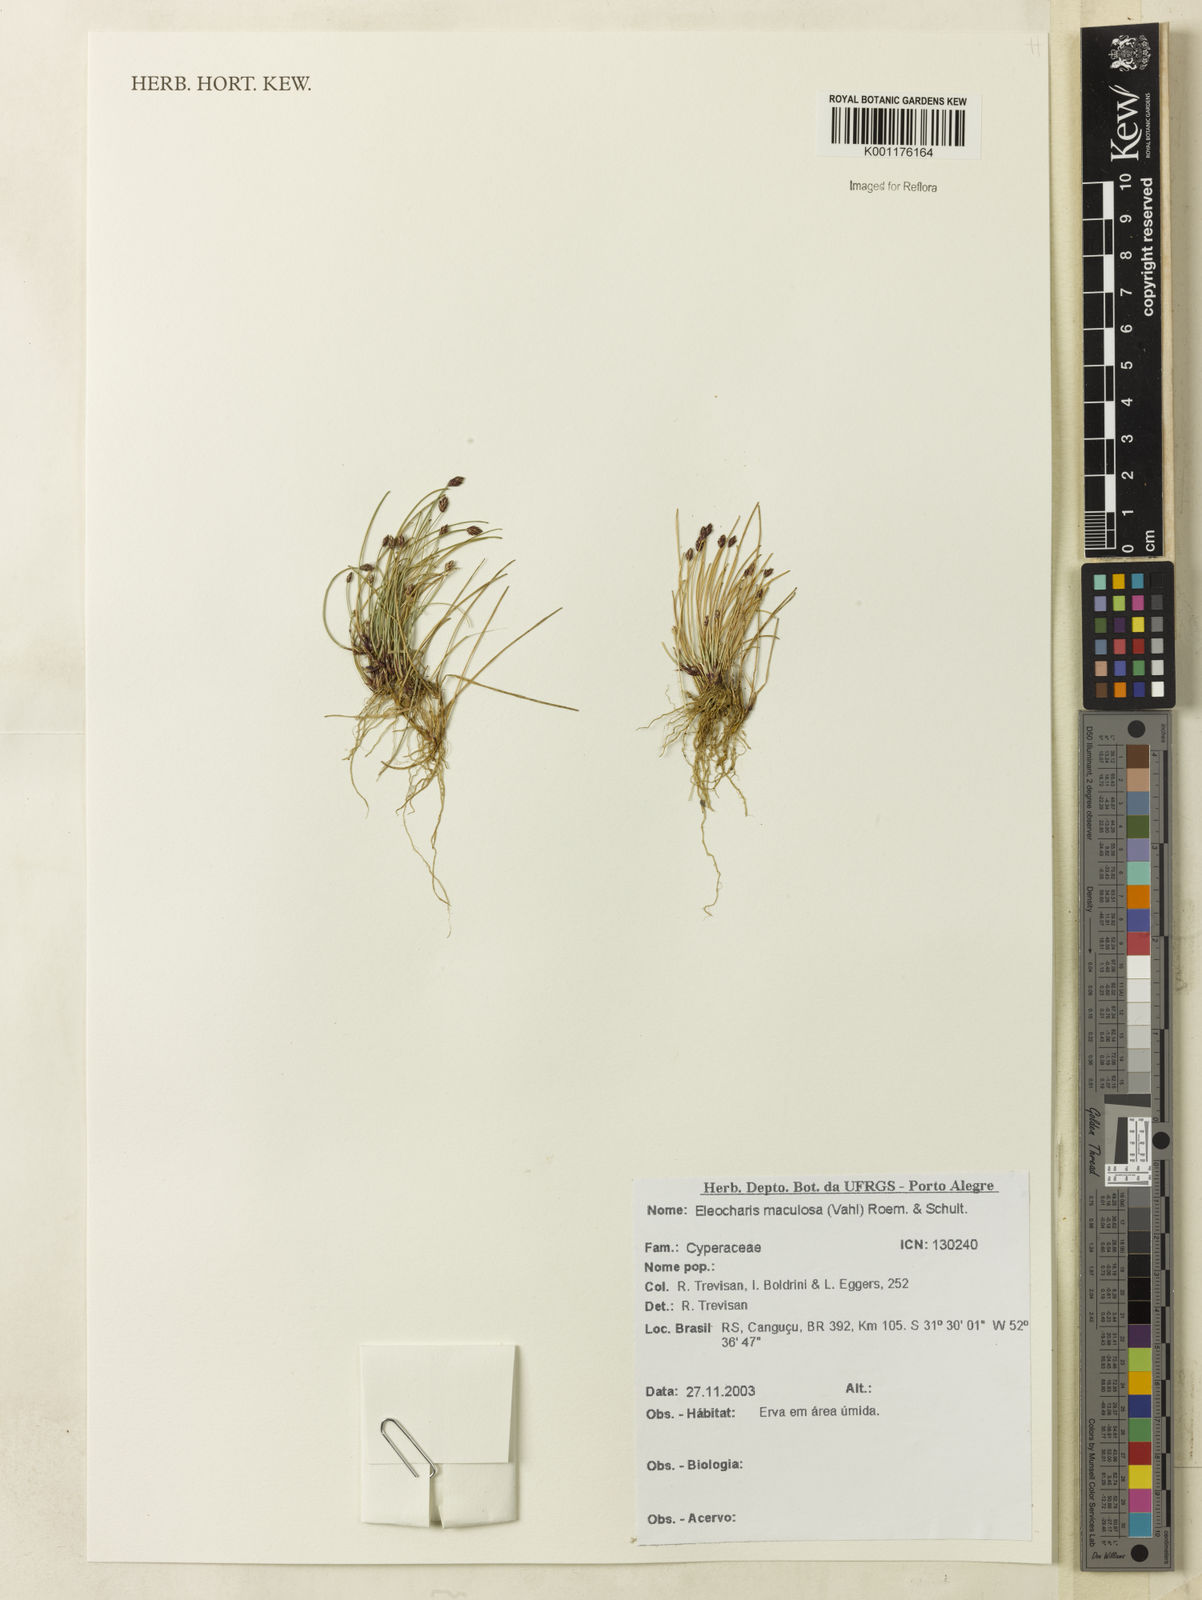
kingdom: Plantae
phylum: Tracheophyta
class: Liliopsida
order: Poales
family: Cyperaceae
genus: Eleocharis
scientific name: Eleocharis maculosa
